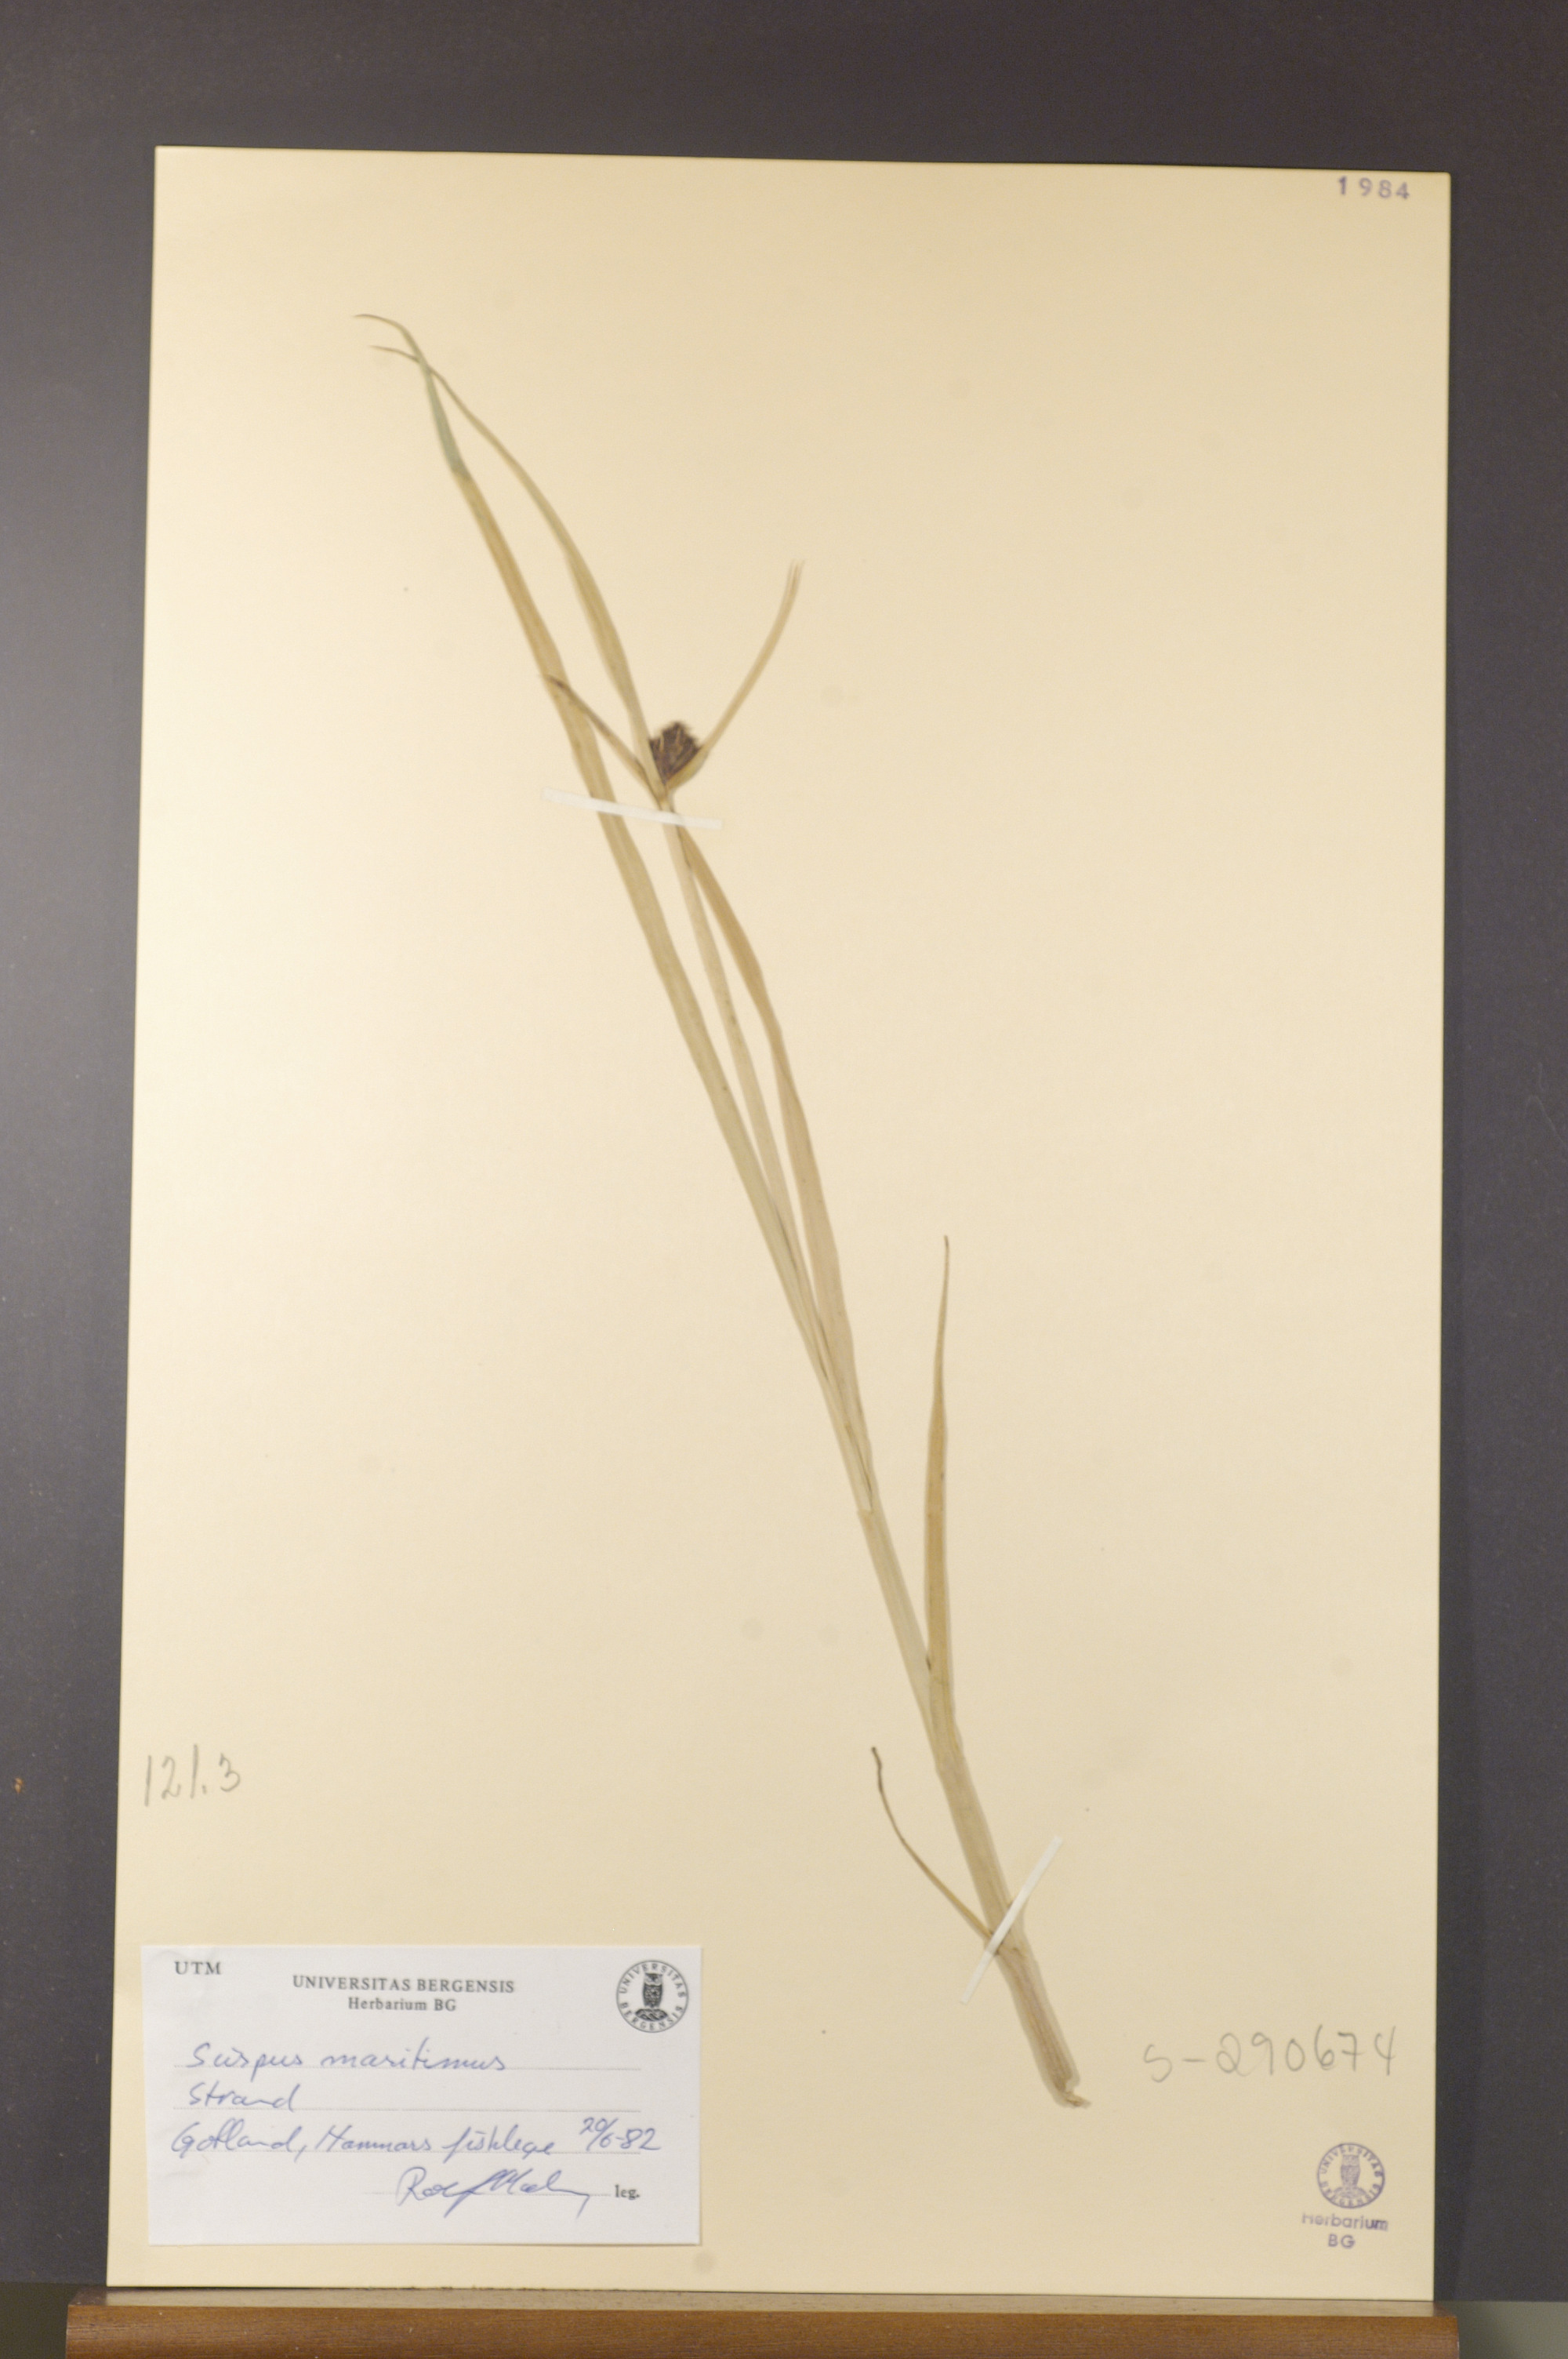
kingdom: Plantae
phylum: Tracheophyta
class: Liliopsida
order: Poales
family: Cyperaceae
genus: Bolboschoenus
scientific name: Bolboschoenus maritimus
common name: Sea club-rush
